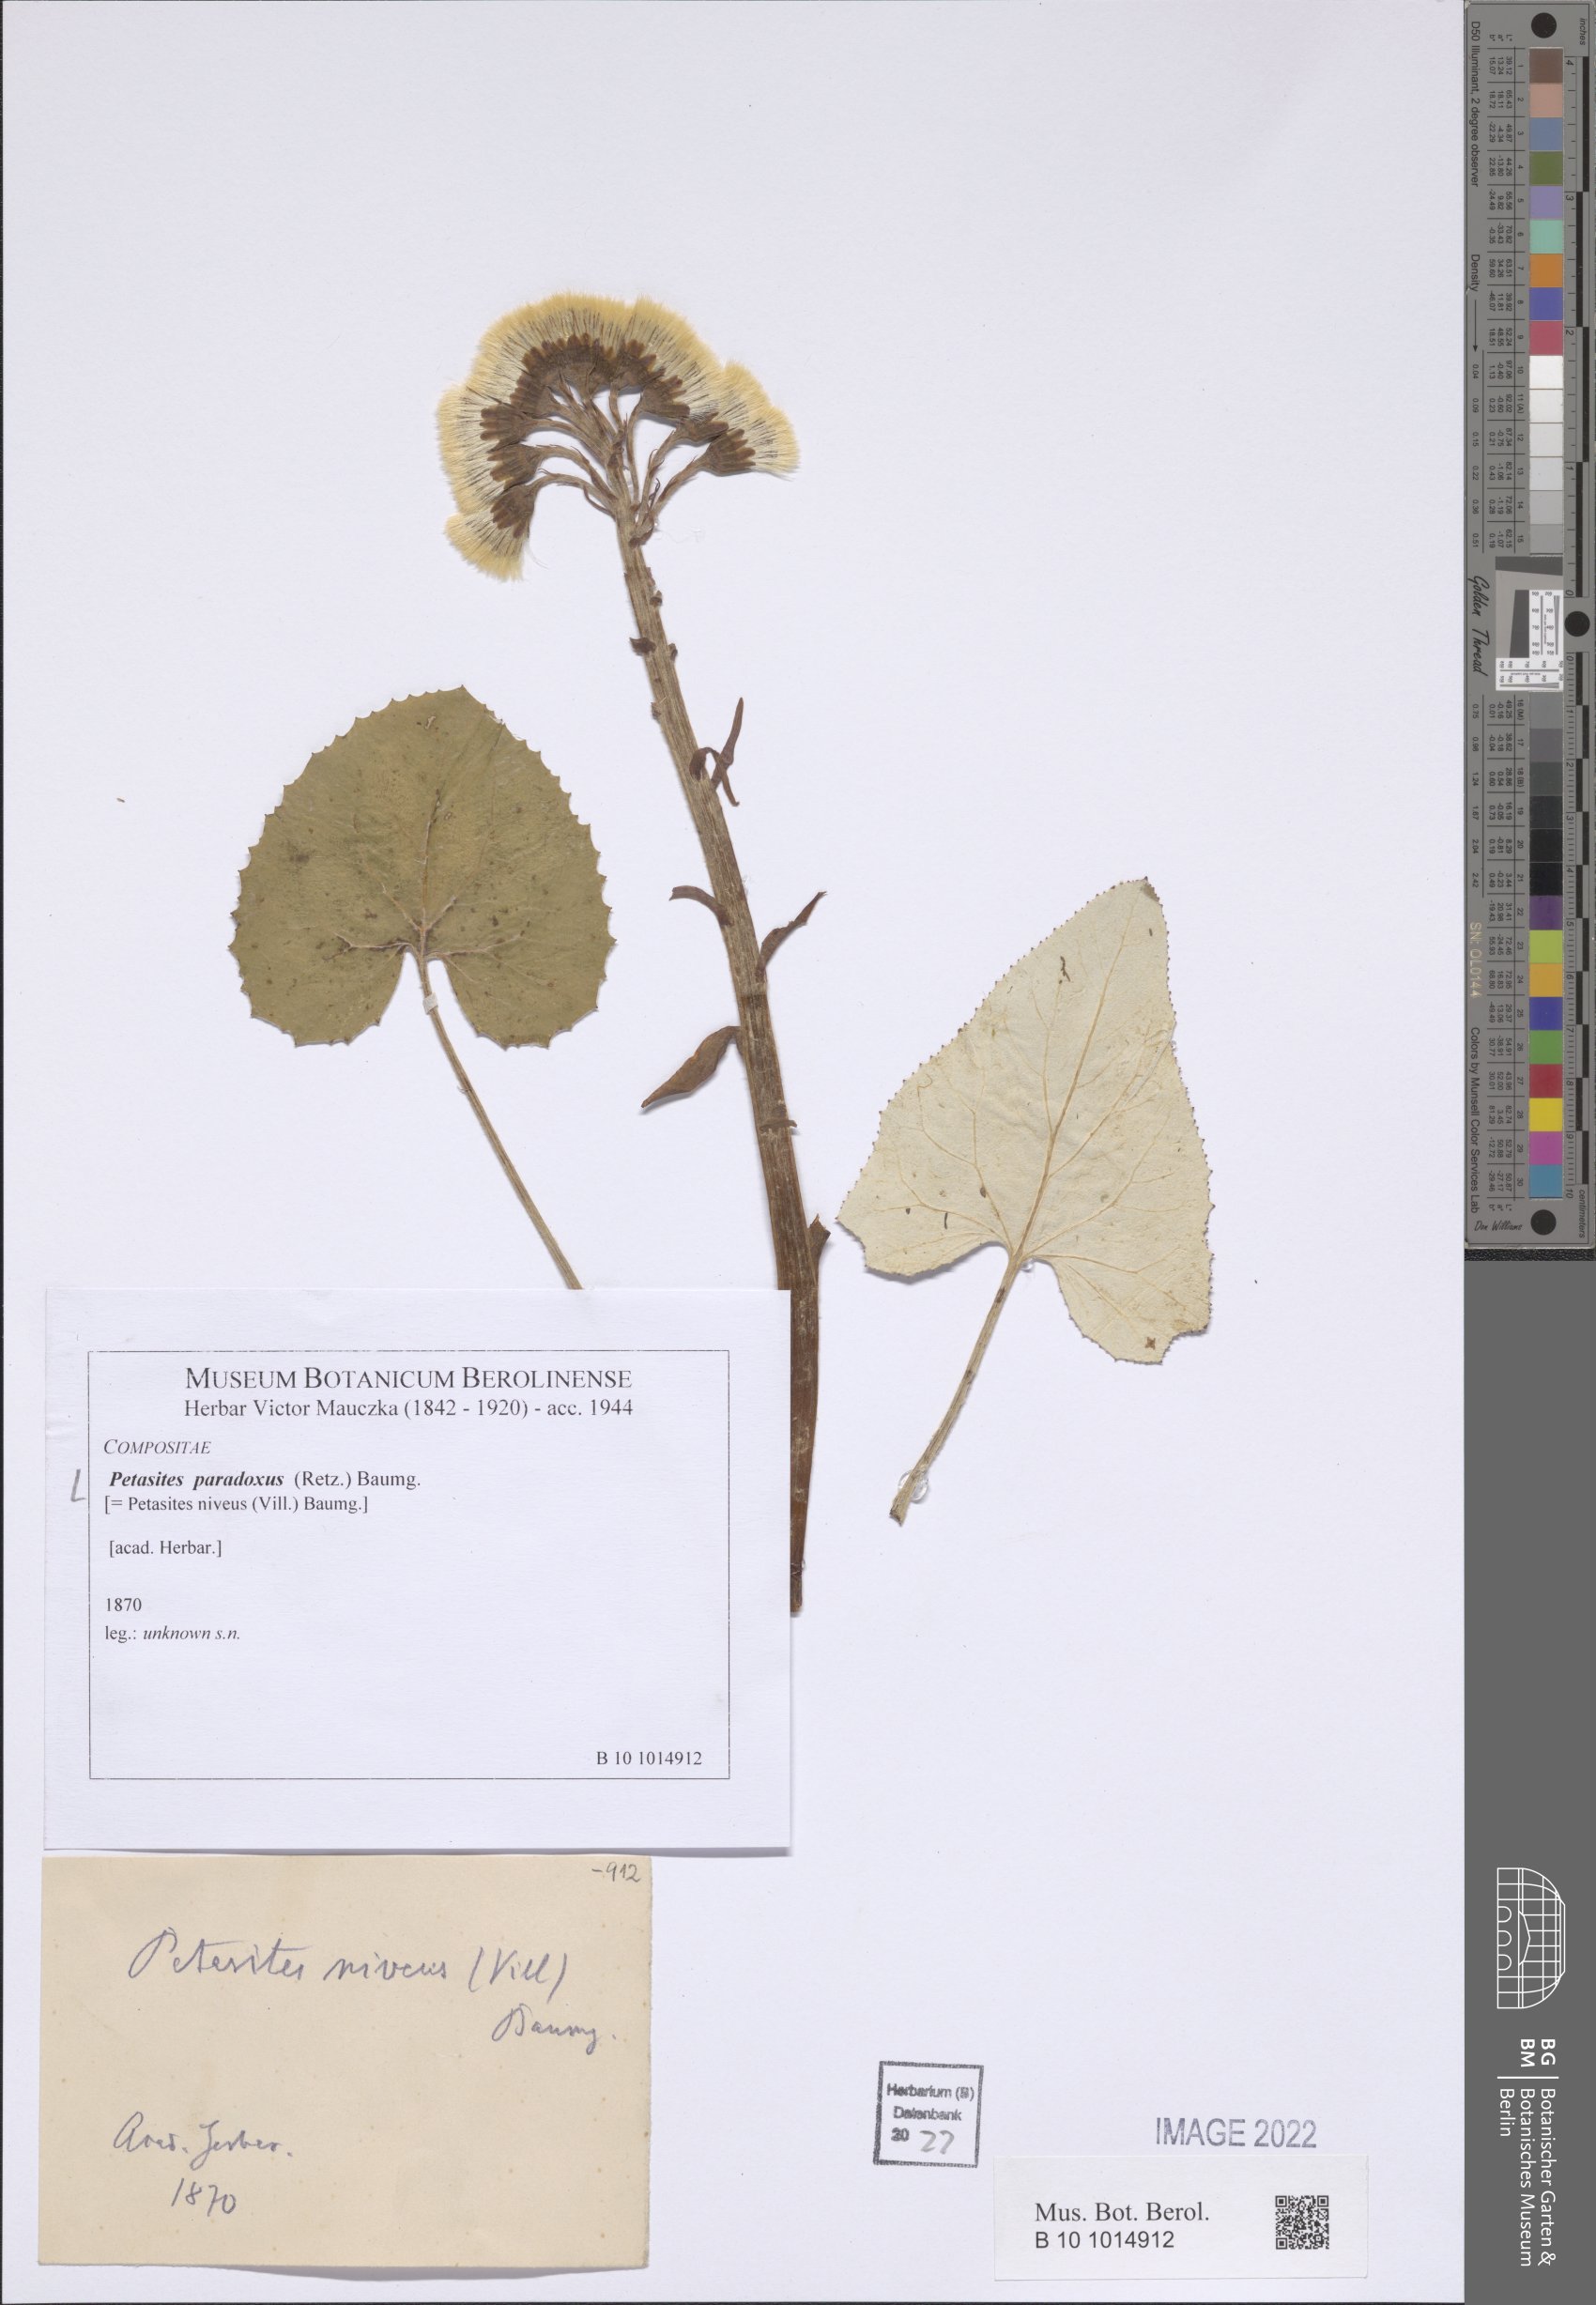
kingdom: Plantae
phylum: Tracheophyta
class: Magnoliopsida
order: Asterales
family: Asteraceae
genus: Petasites
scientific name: Petasites paradoxus
